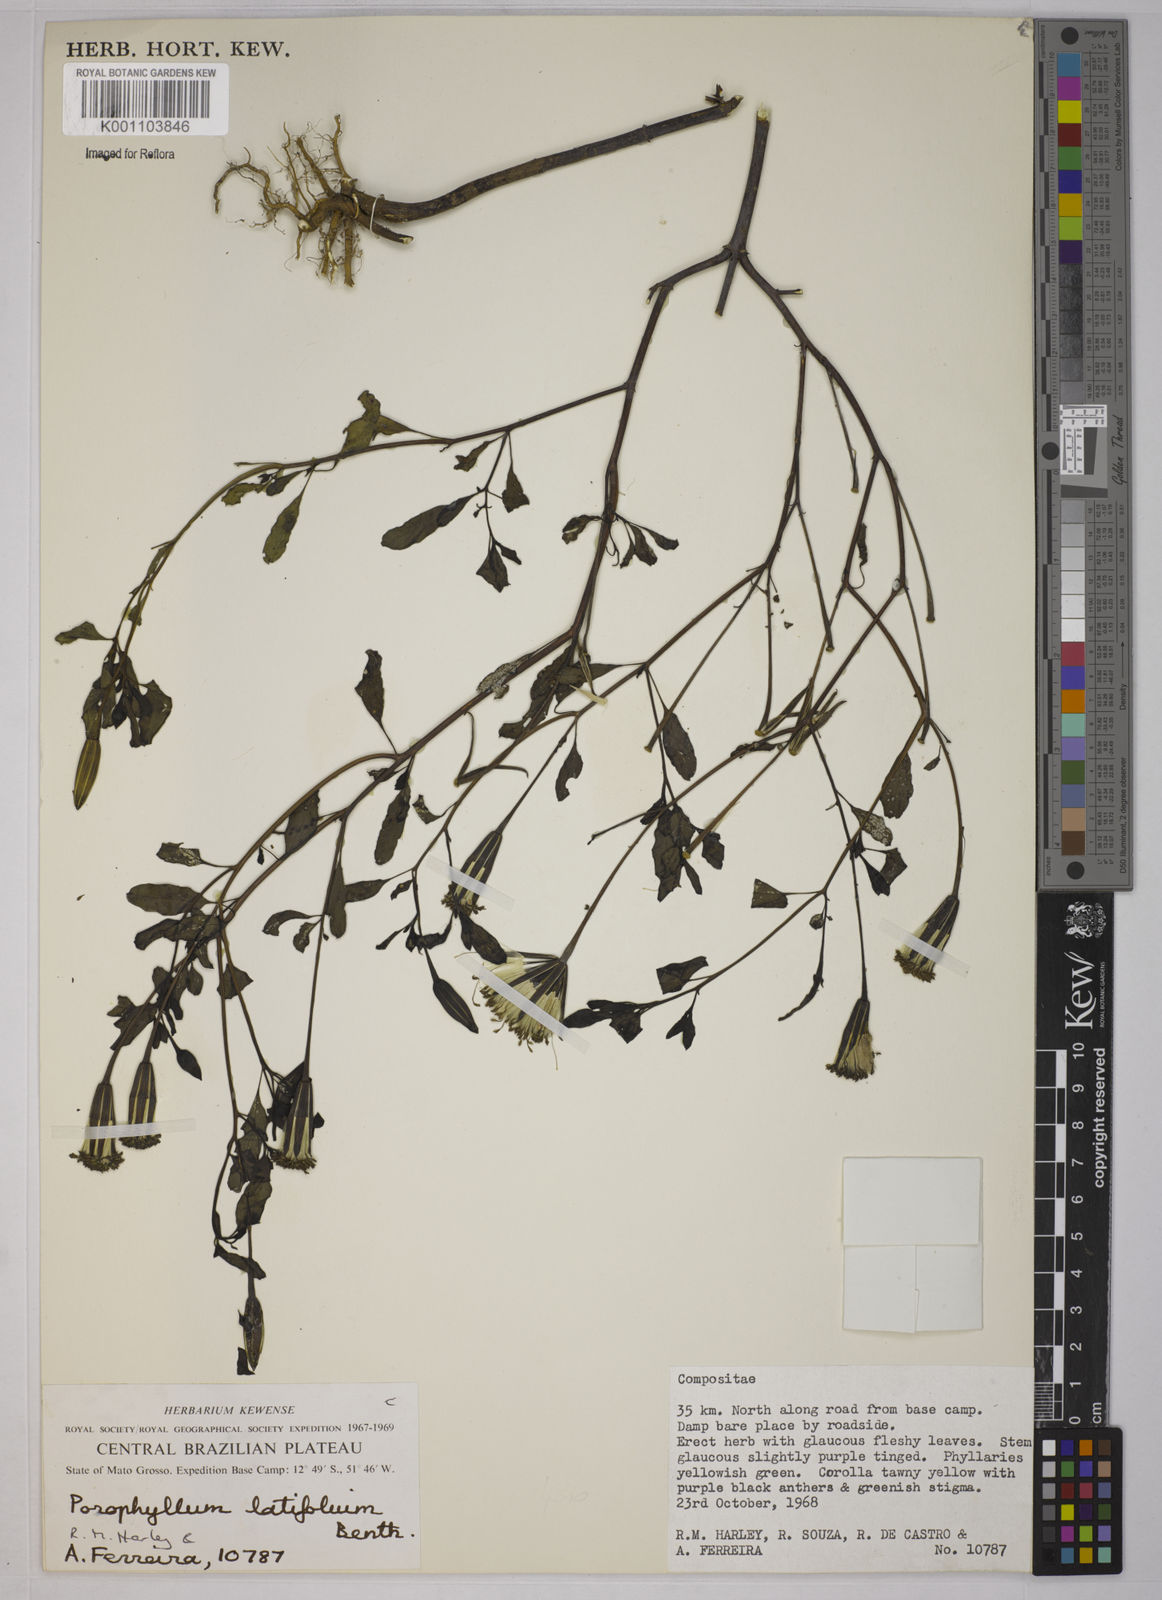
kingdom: Plantae
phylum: Tracheophyta
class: Magnoliopsida
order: Asterales
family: Asteraceae
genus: Porophyllum
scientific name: Porophyllum ruderale
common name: Yerba porosa
